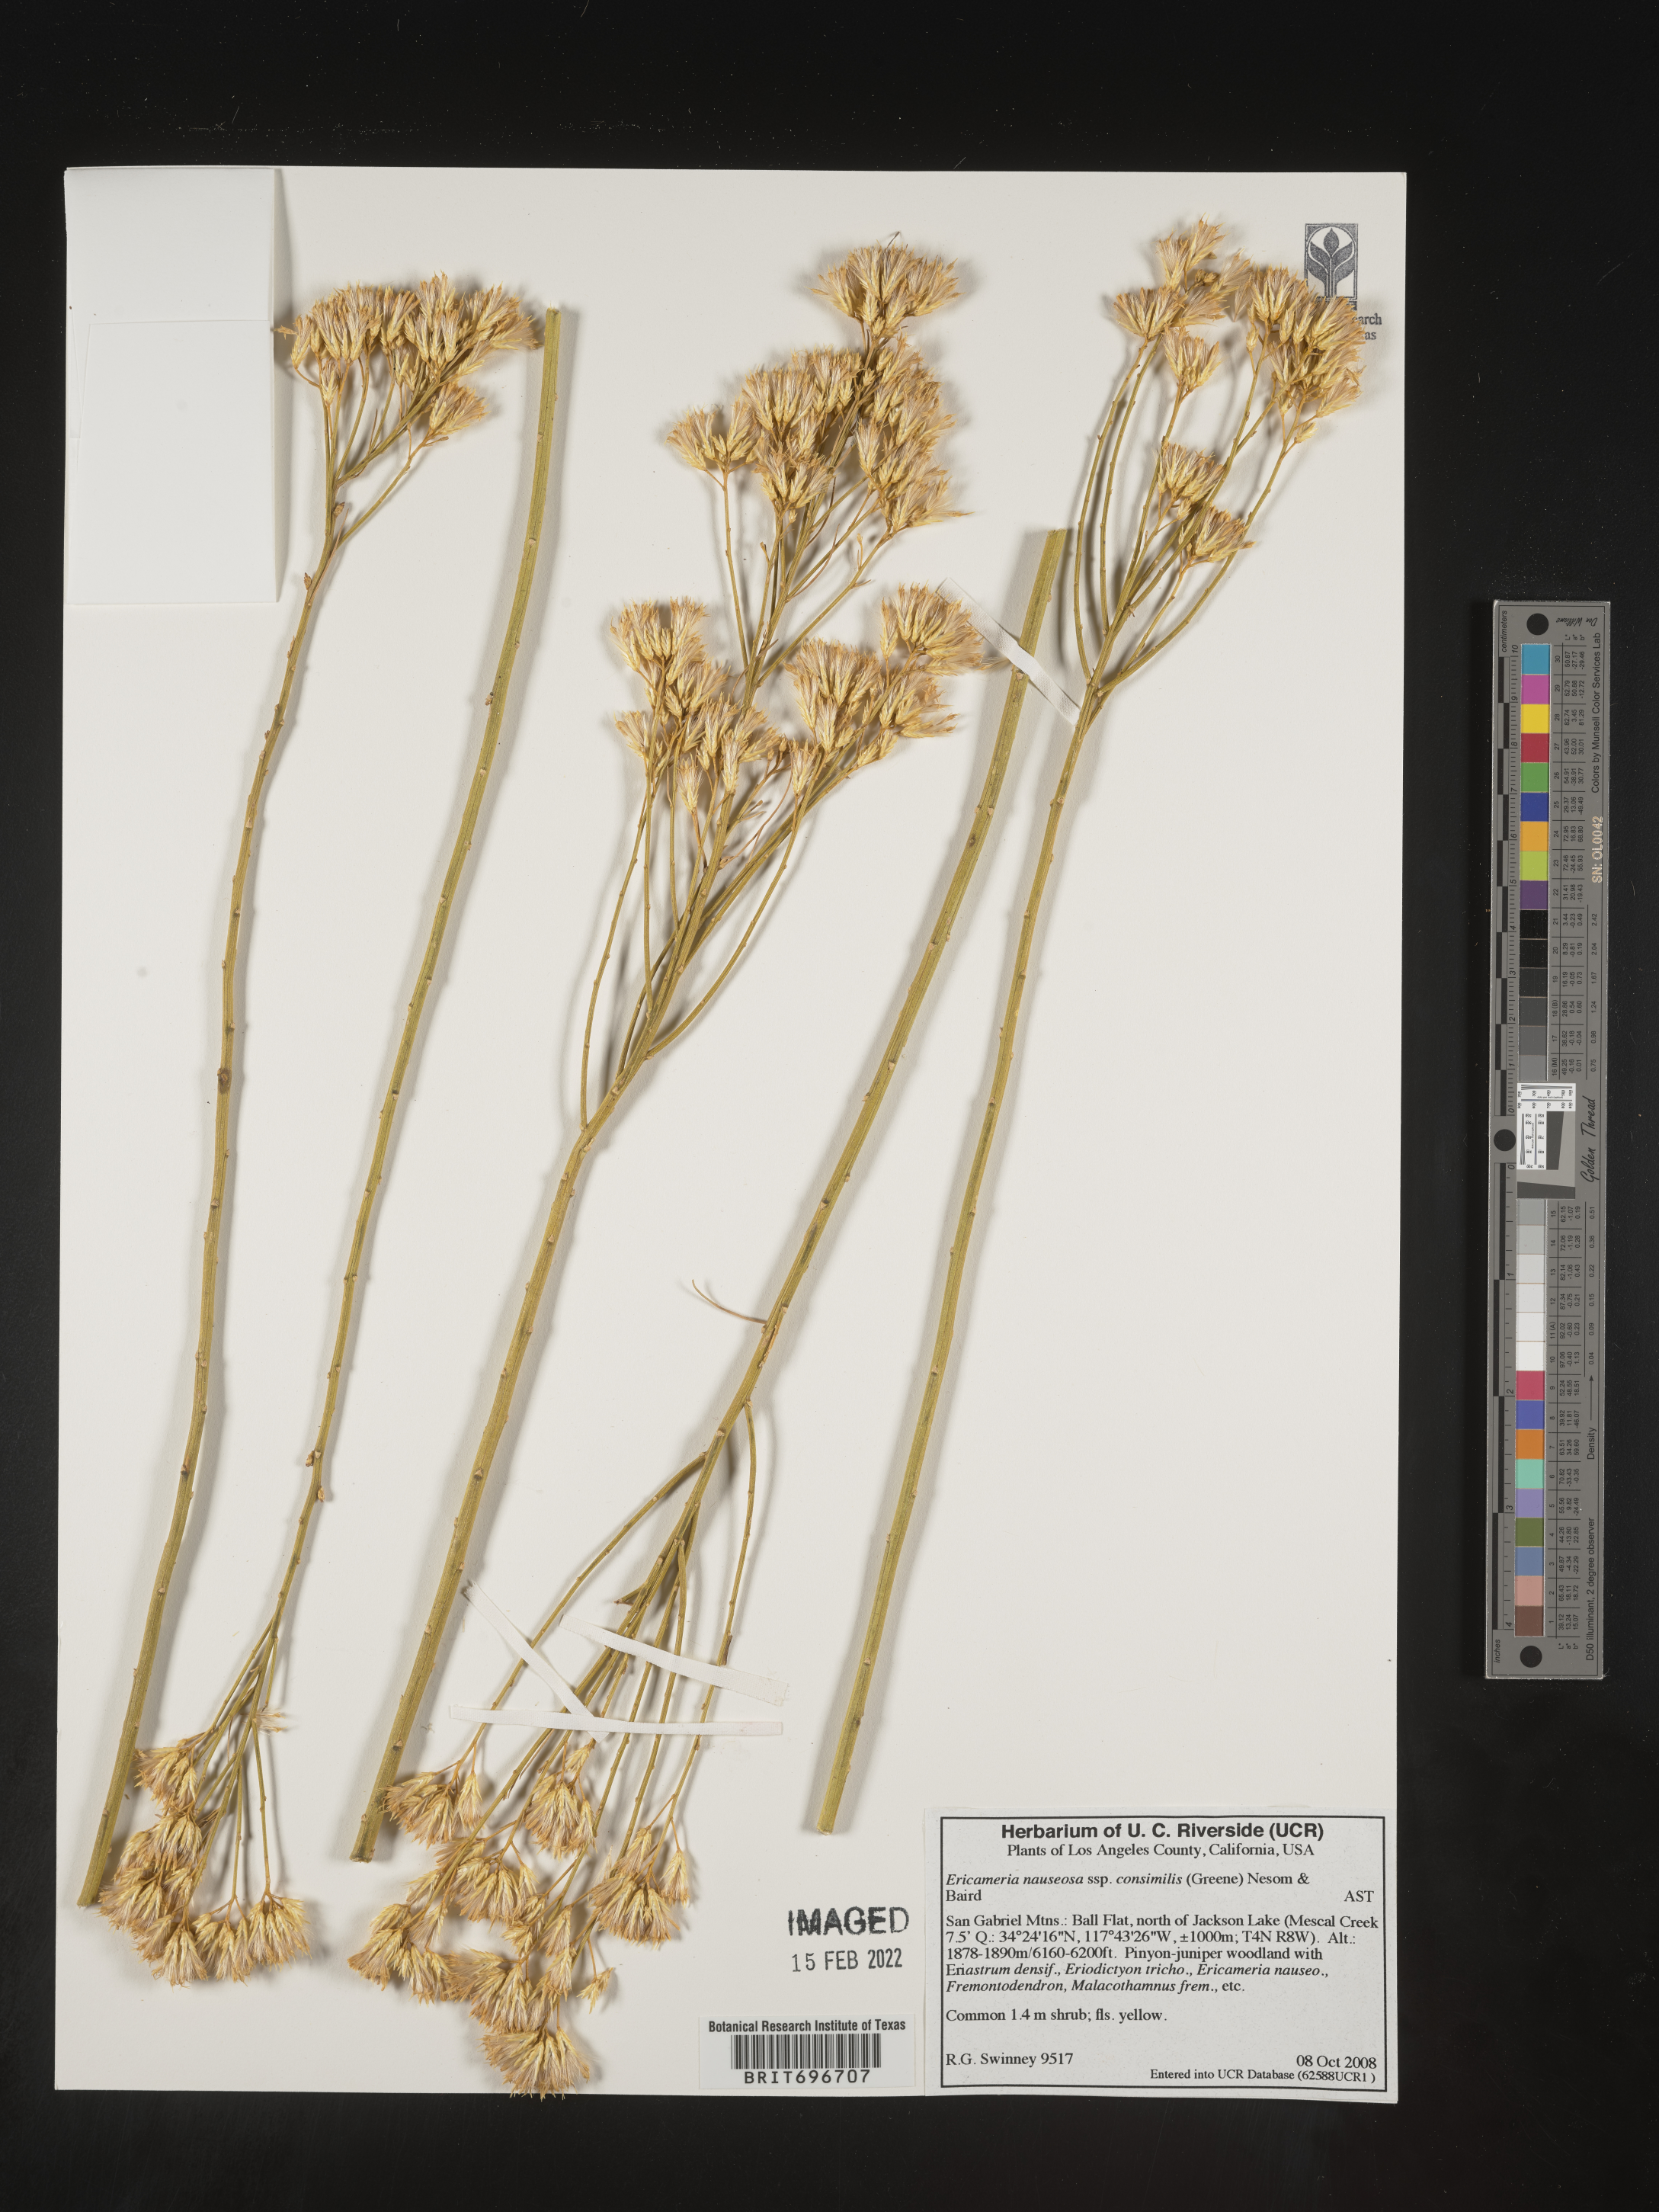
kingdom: Plantae
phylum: Tracheophyta
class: Magnoliopsida
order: Asterales
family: Asteraceae
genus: Ericameria
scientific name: Ericameria nauseosa
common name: Rubber rabbitbrush
